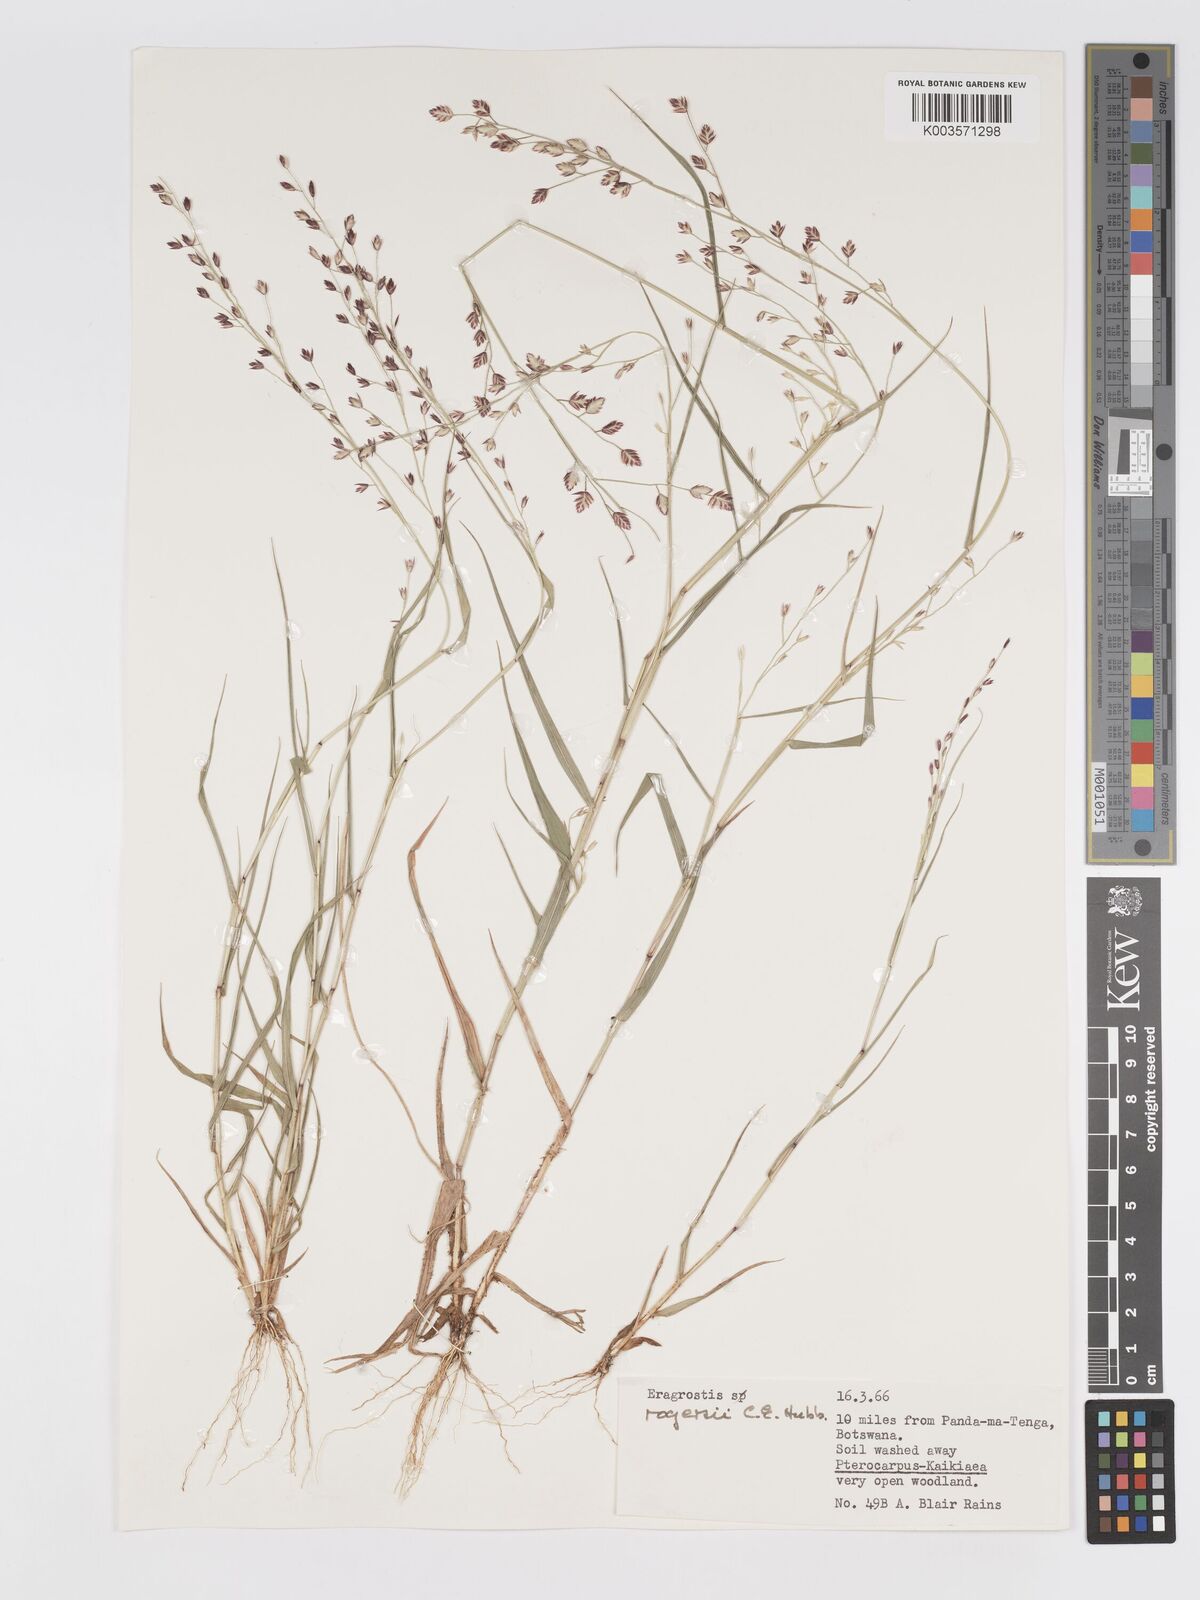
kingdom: Plantae
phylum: Tracheophyta
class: Liliopsida
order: Poales
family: Poaceae
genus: Eragrostis
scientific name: Eragrostis rogersii
